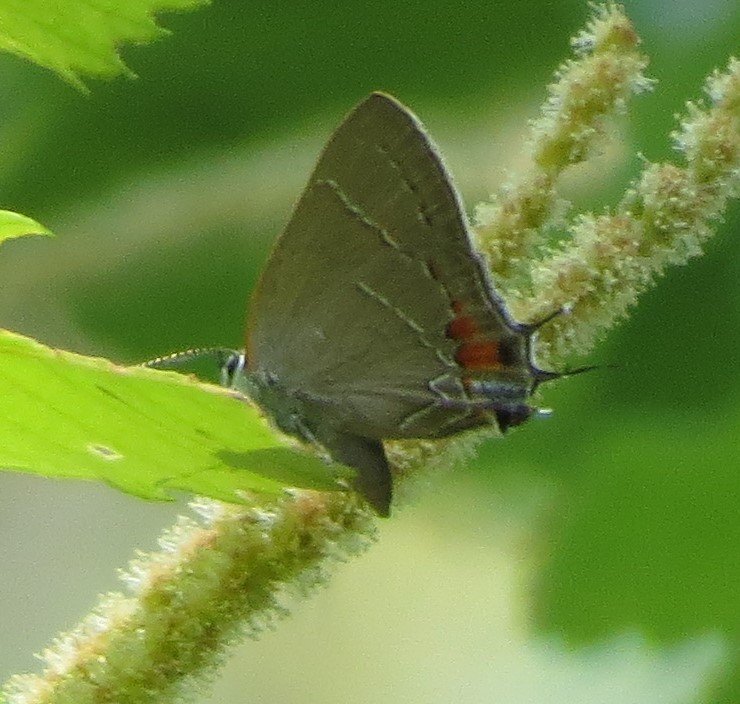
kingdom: Animalia
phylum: Arthropoda
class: Insecta
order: Lepidoptera
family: Lycaenidae
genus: Fixsenia
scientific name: Fixsenia favonius
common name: Oak Hairstreak
